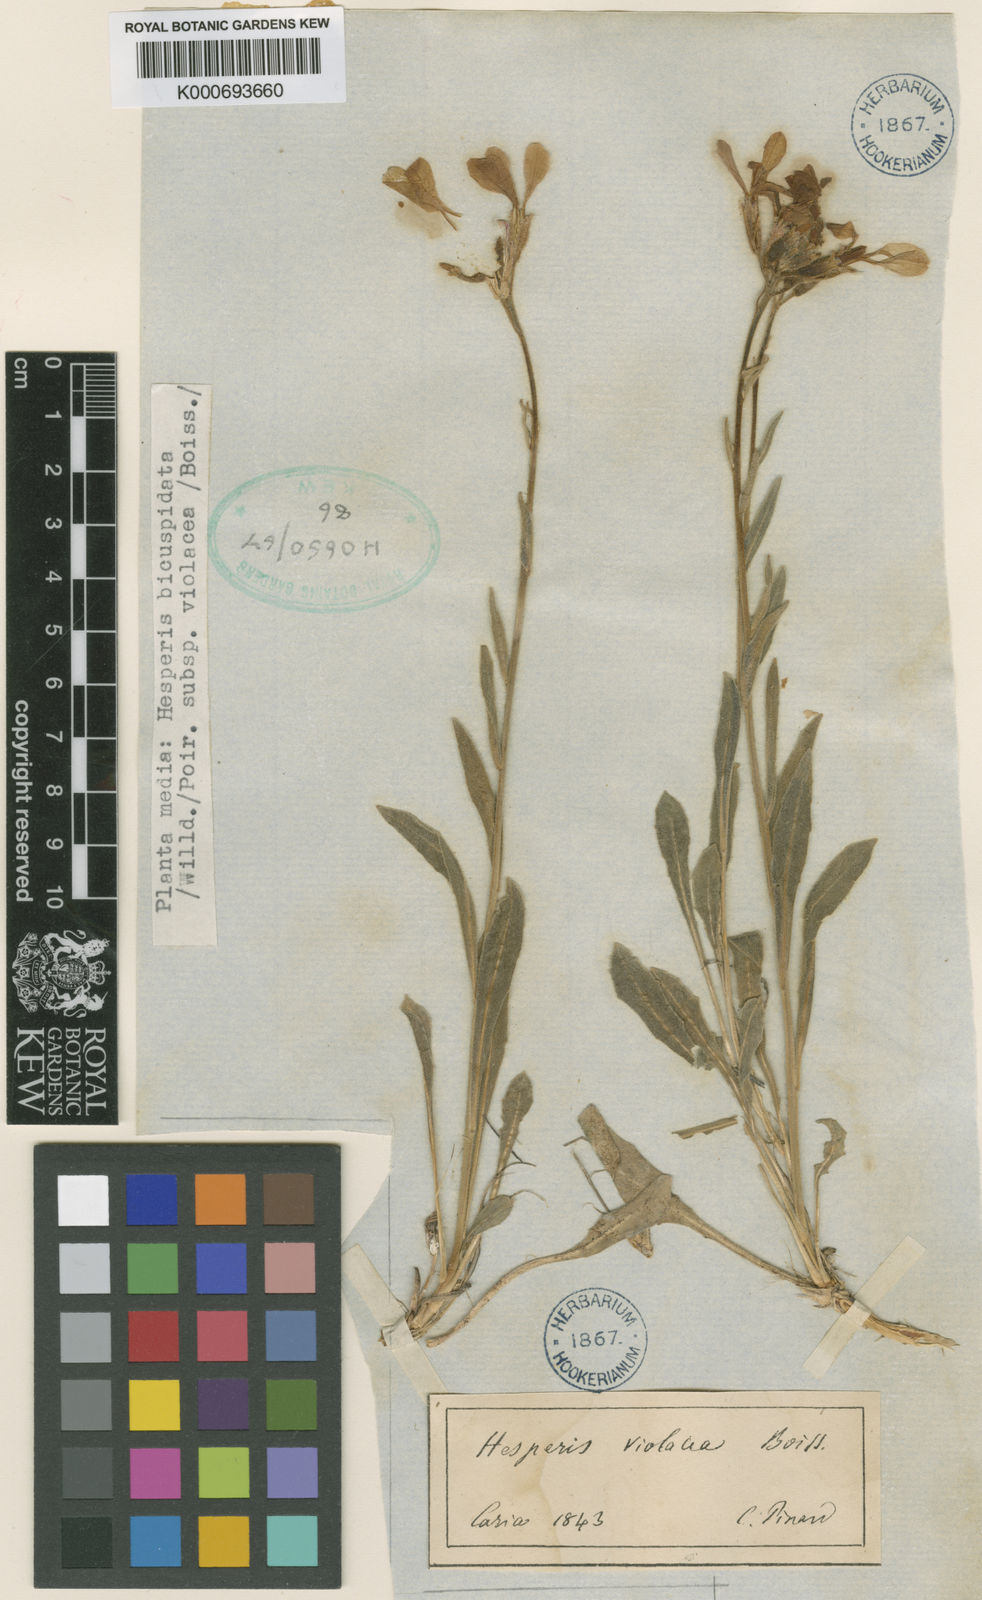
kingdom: Plantae
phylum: Tracheophyta
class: Magnoliopsida
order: Brassicales
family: Brassicaceae
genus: Hesperis
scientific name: Hesperis bicuspidata
